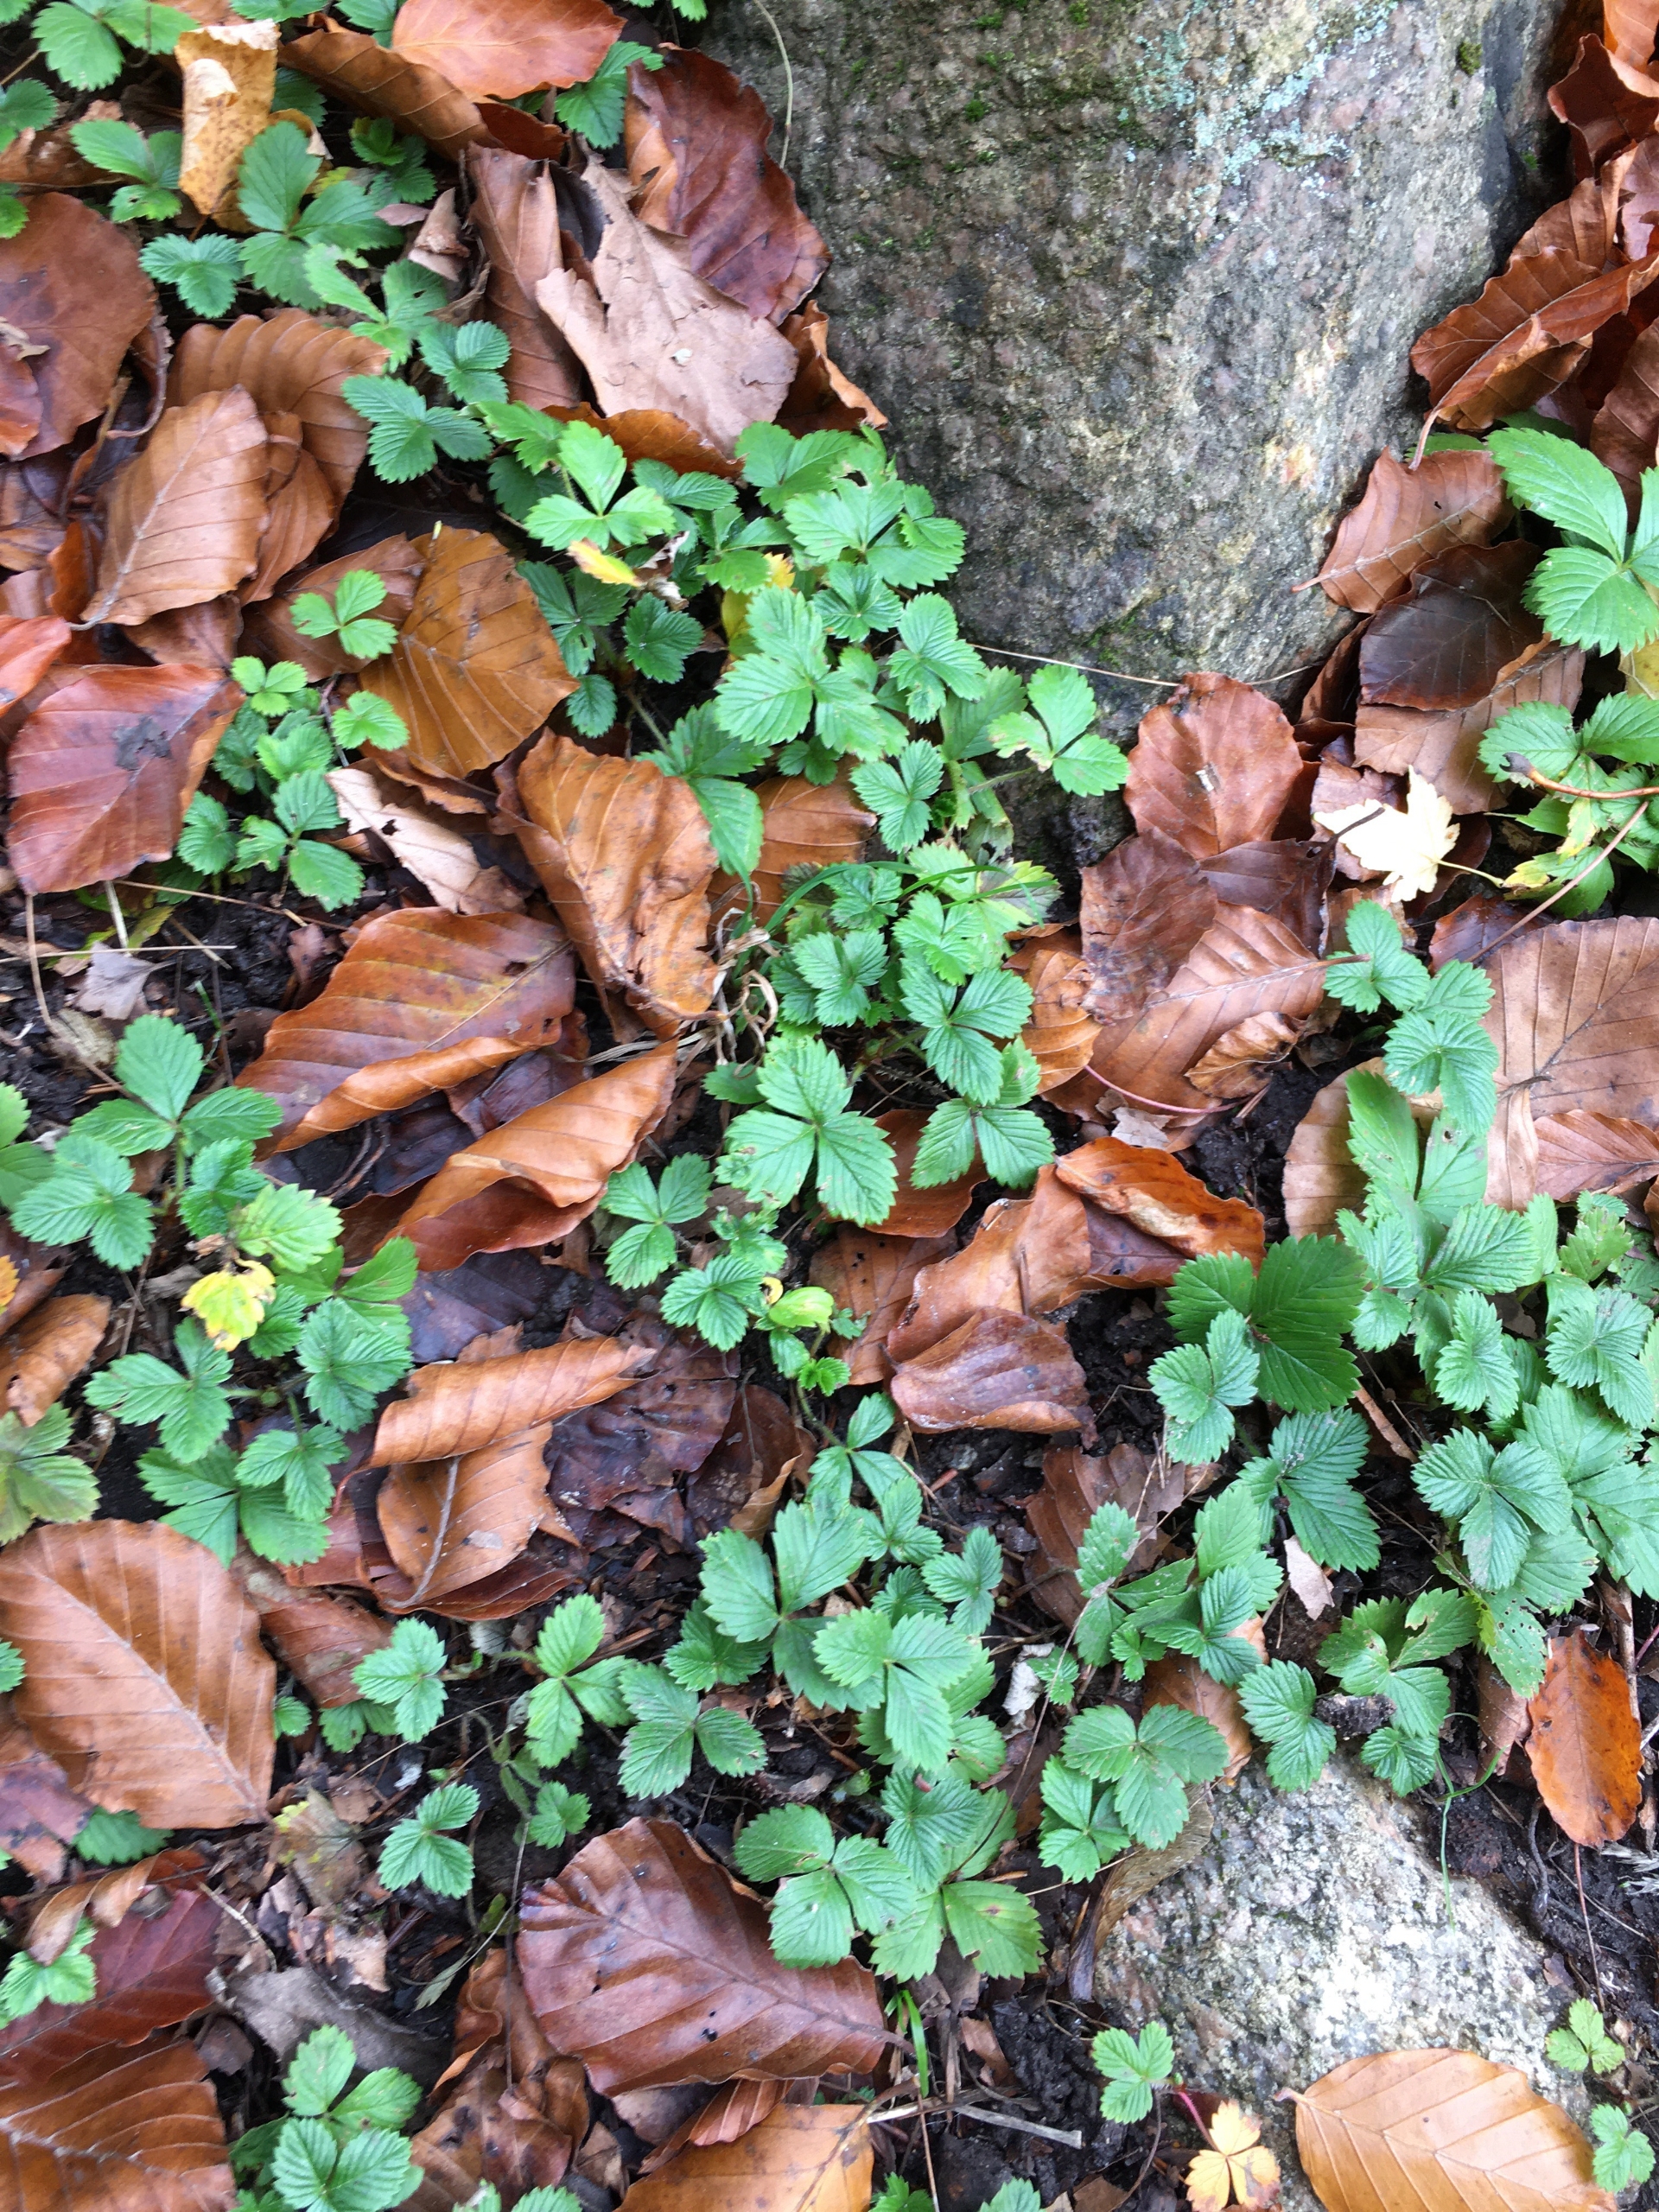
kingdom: Plantae
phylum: Tracheophyta
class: Magnoliopsida
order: Rosales
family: Rosaceae
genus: Fragaria
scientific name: Fragaria vesca
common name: Skov-jordbær
